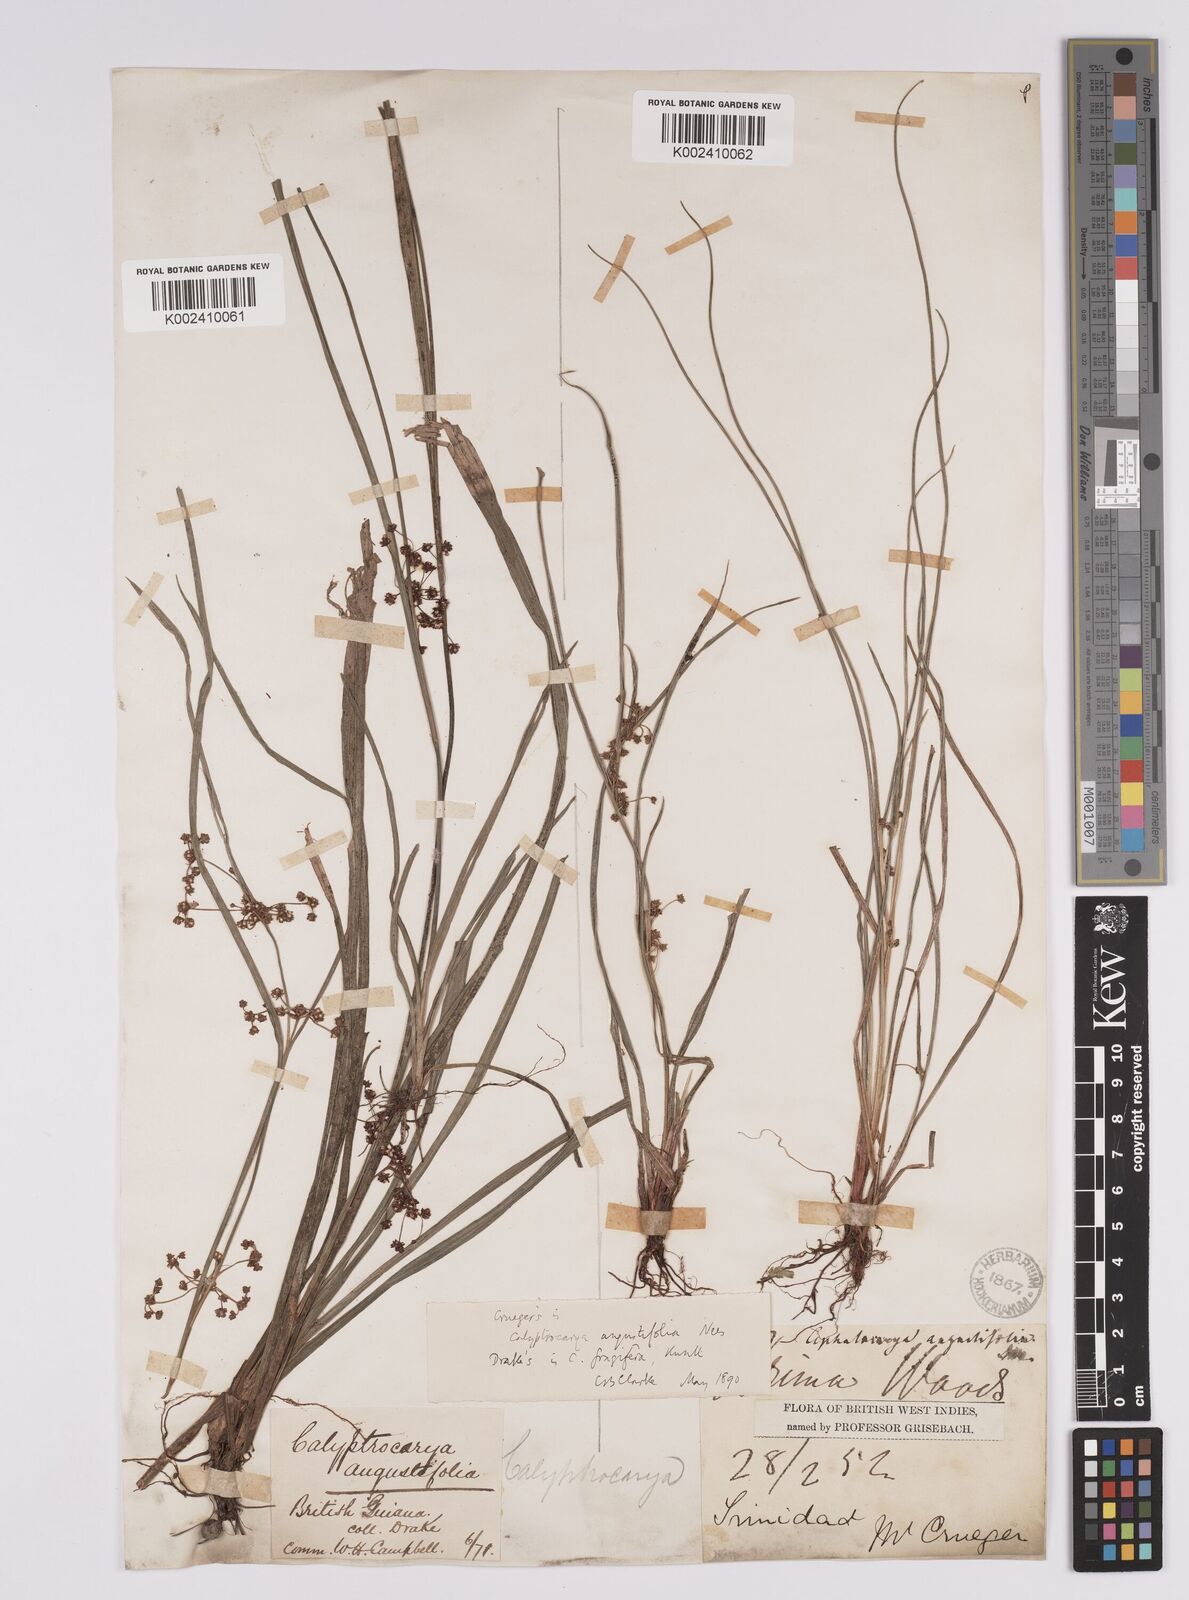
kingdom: Plantae
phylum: Tracheophyta
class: Liliopsida
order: Poales
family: Cyperaceae
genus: Calyptrocarya
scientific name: Calyptrocarya glomerulata
